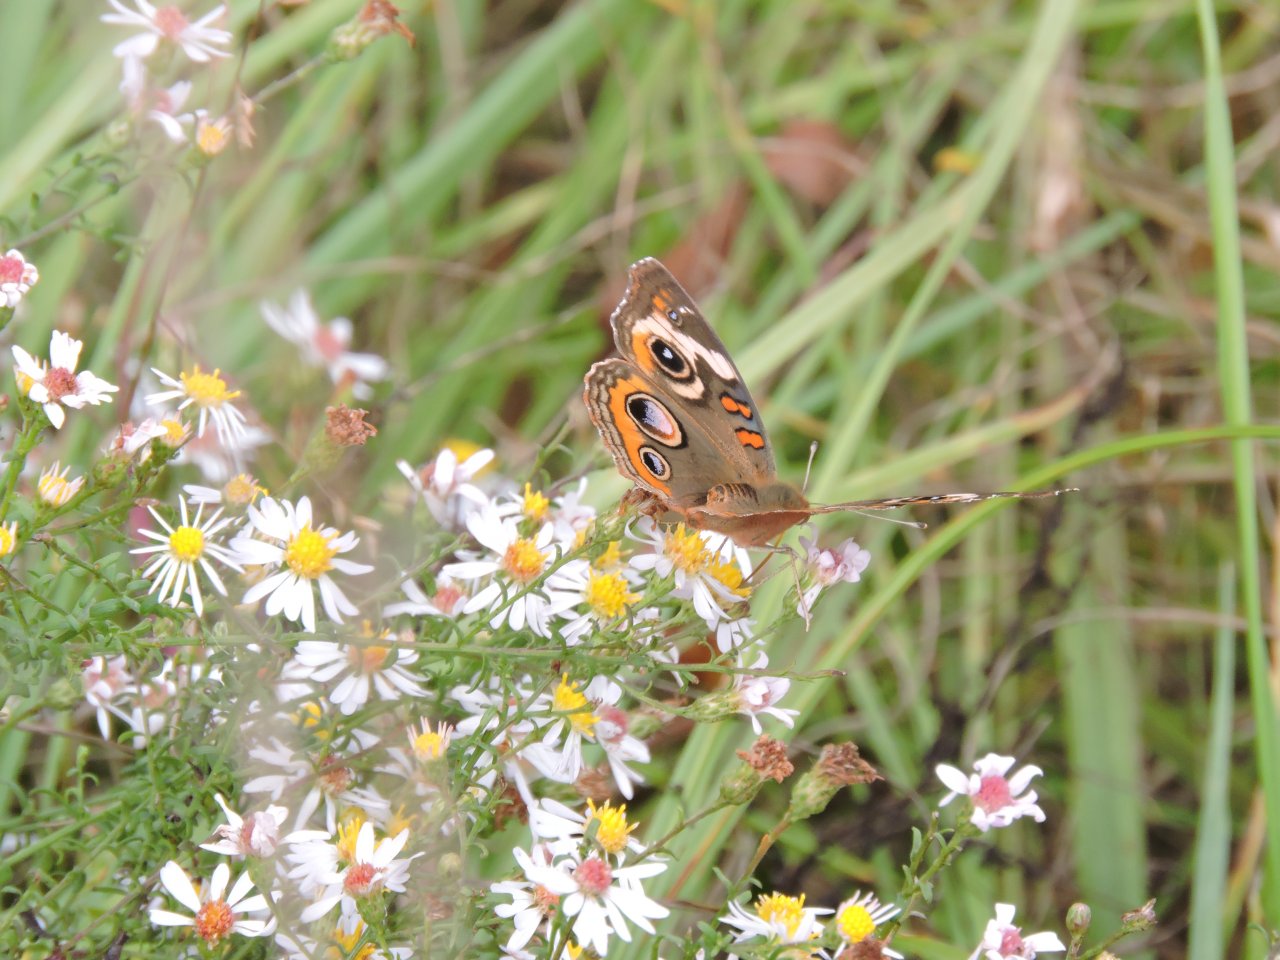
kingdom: Animalia
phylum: Arthropoda
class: Insecta
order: Lepidoptera
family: Nymphalidae
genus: Junonia
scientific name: Junonia coenia
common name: Common Buckeye
